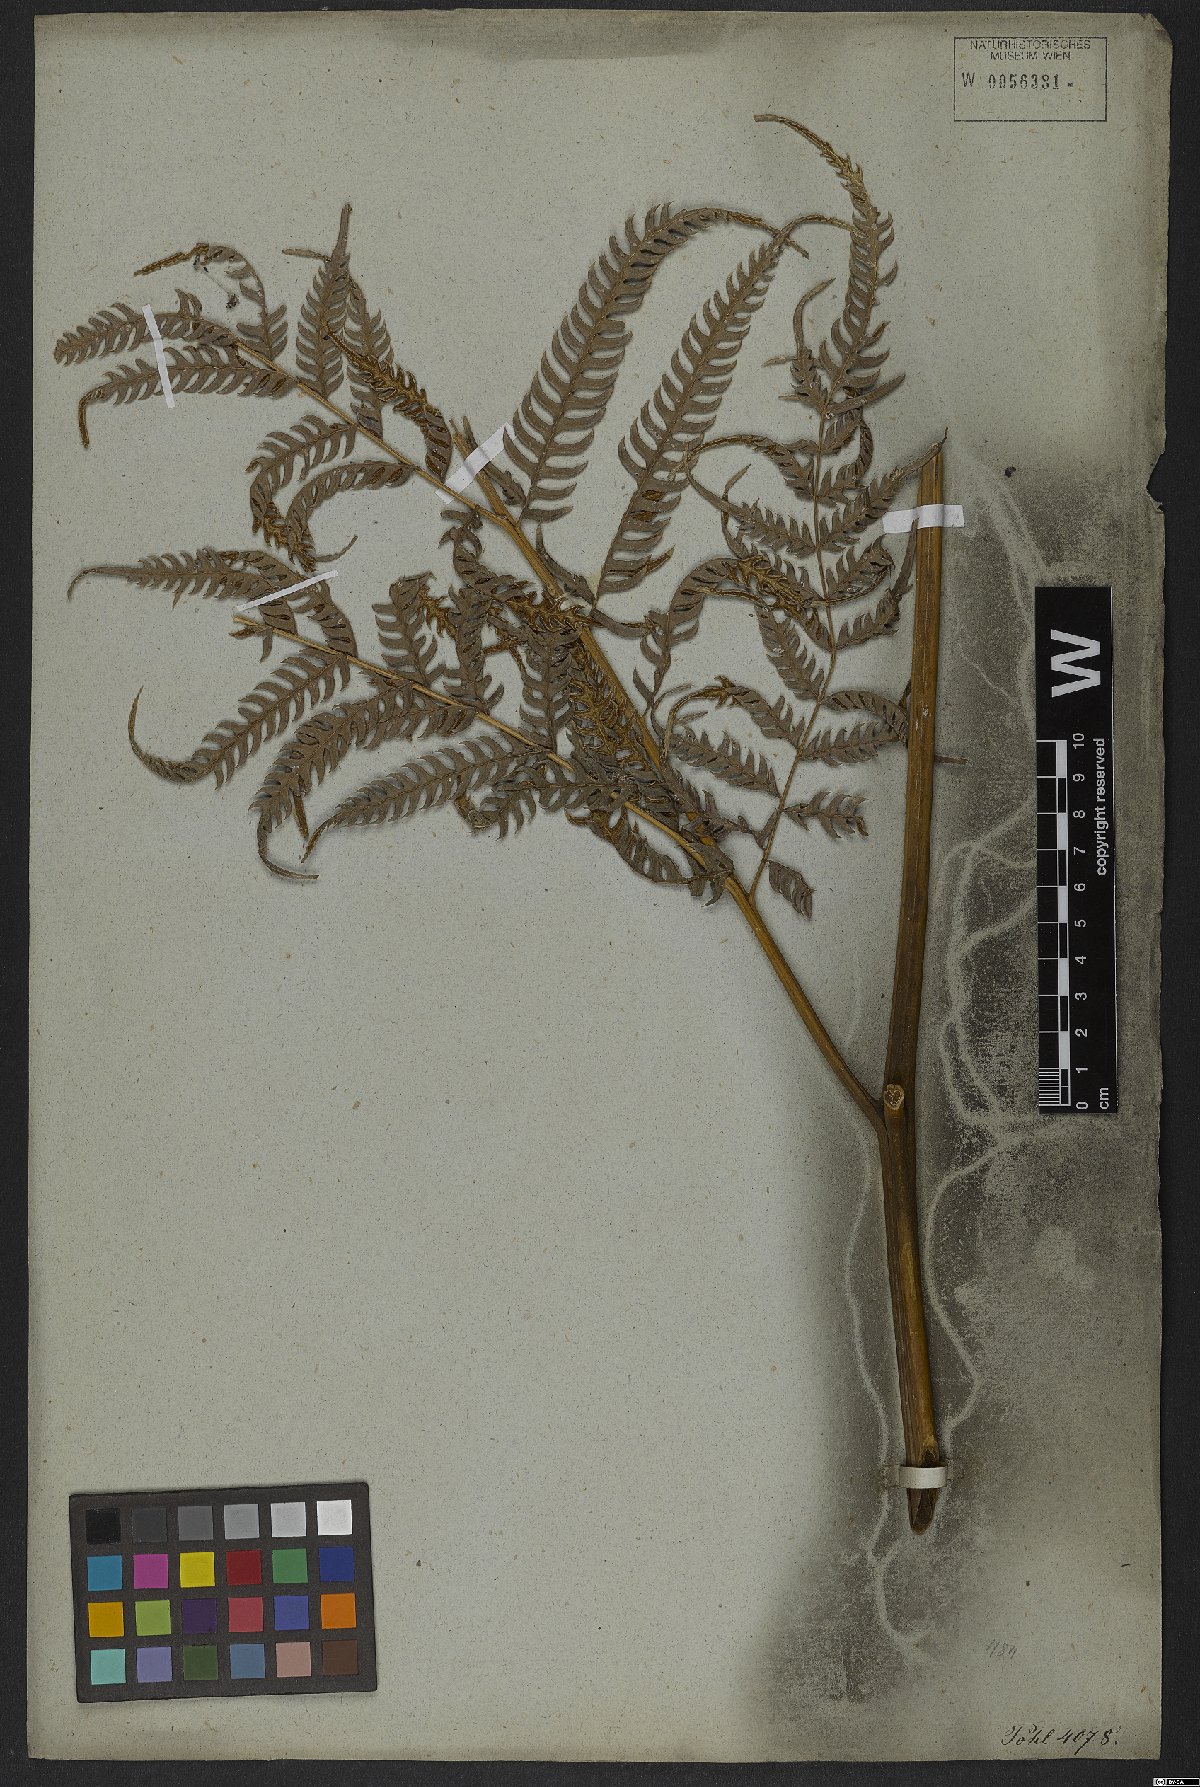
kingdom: Plantae
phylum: Tracheophyta
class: Polypodiopsida
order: Polypodiales
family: Pteridaceae
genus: Pteris
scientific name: Pteris deflexa
